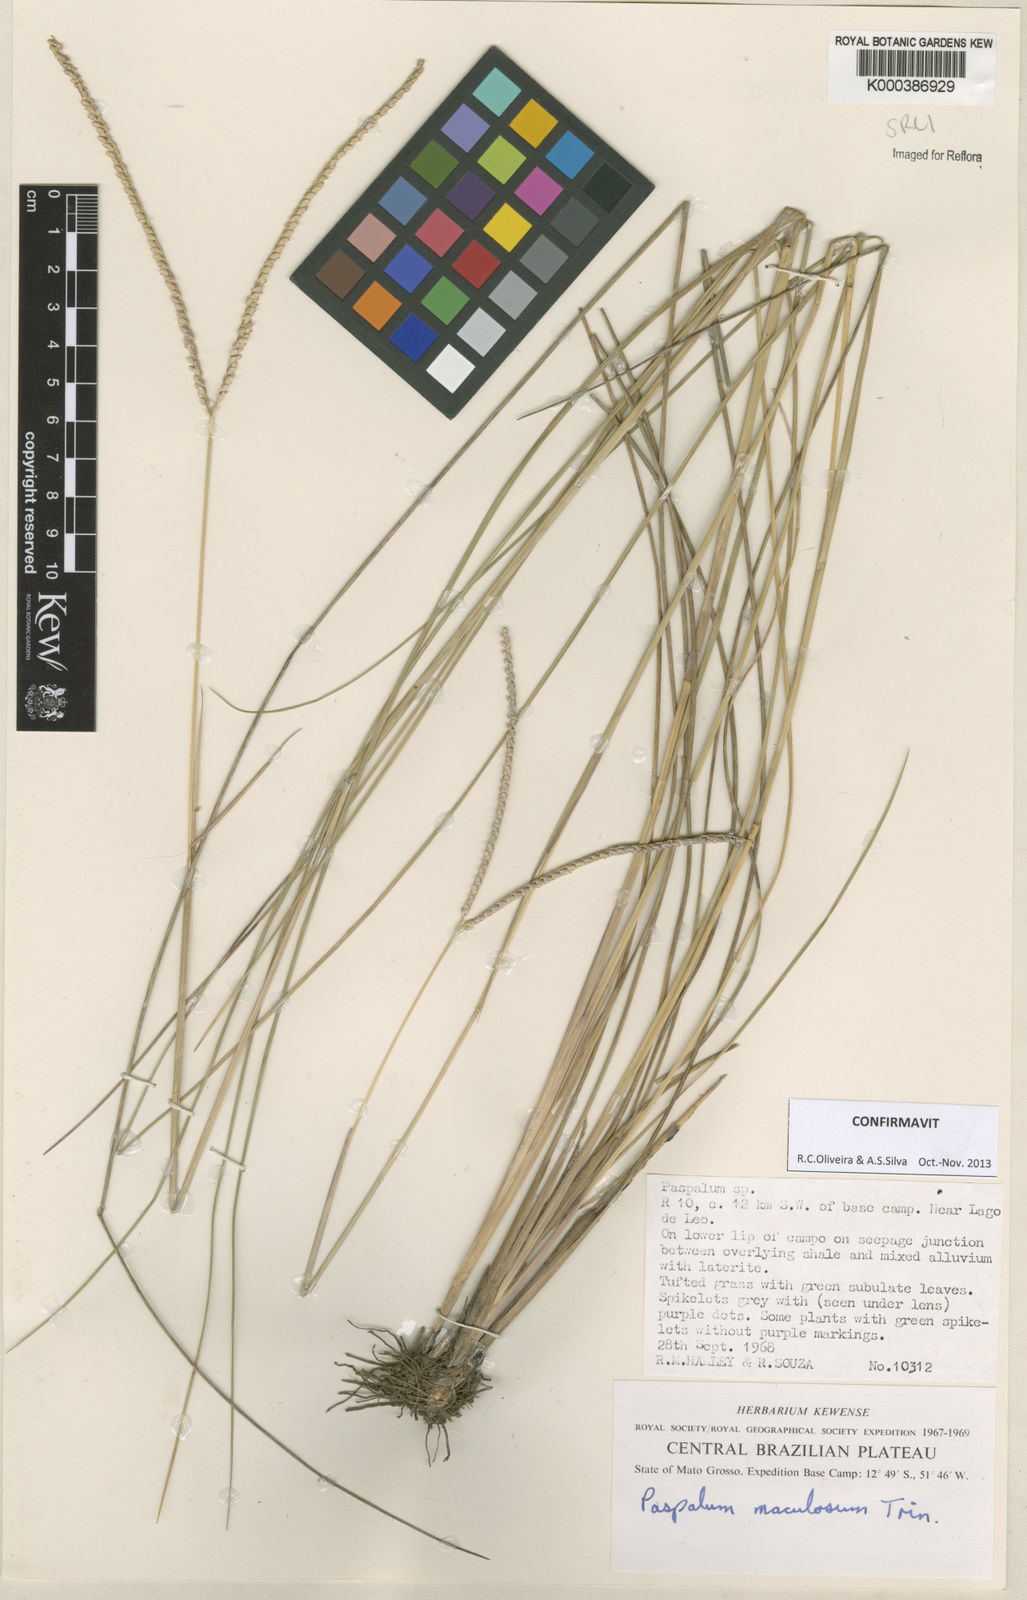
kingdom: Plantae
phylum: Tracheophyta
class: Liliopsida
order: Poales
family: Poaceae
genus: Paspalum
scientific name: Paspalum maculosum
